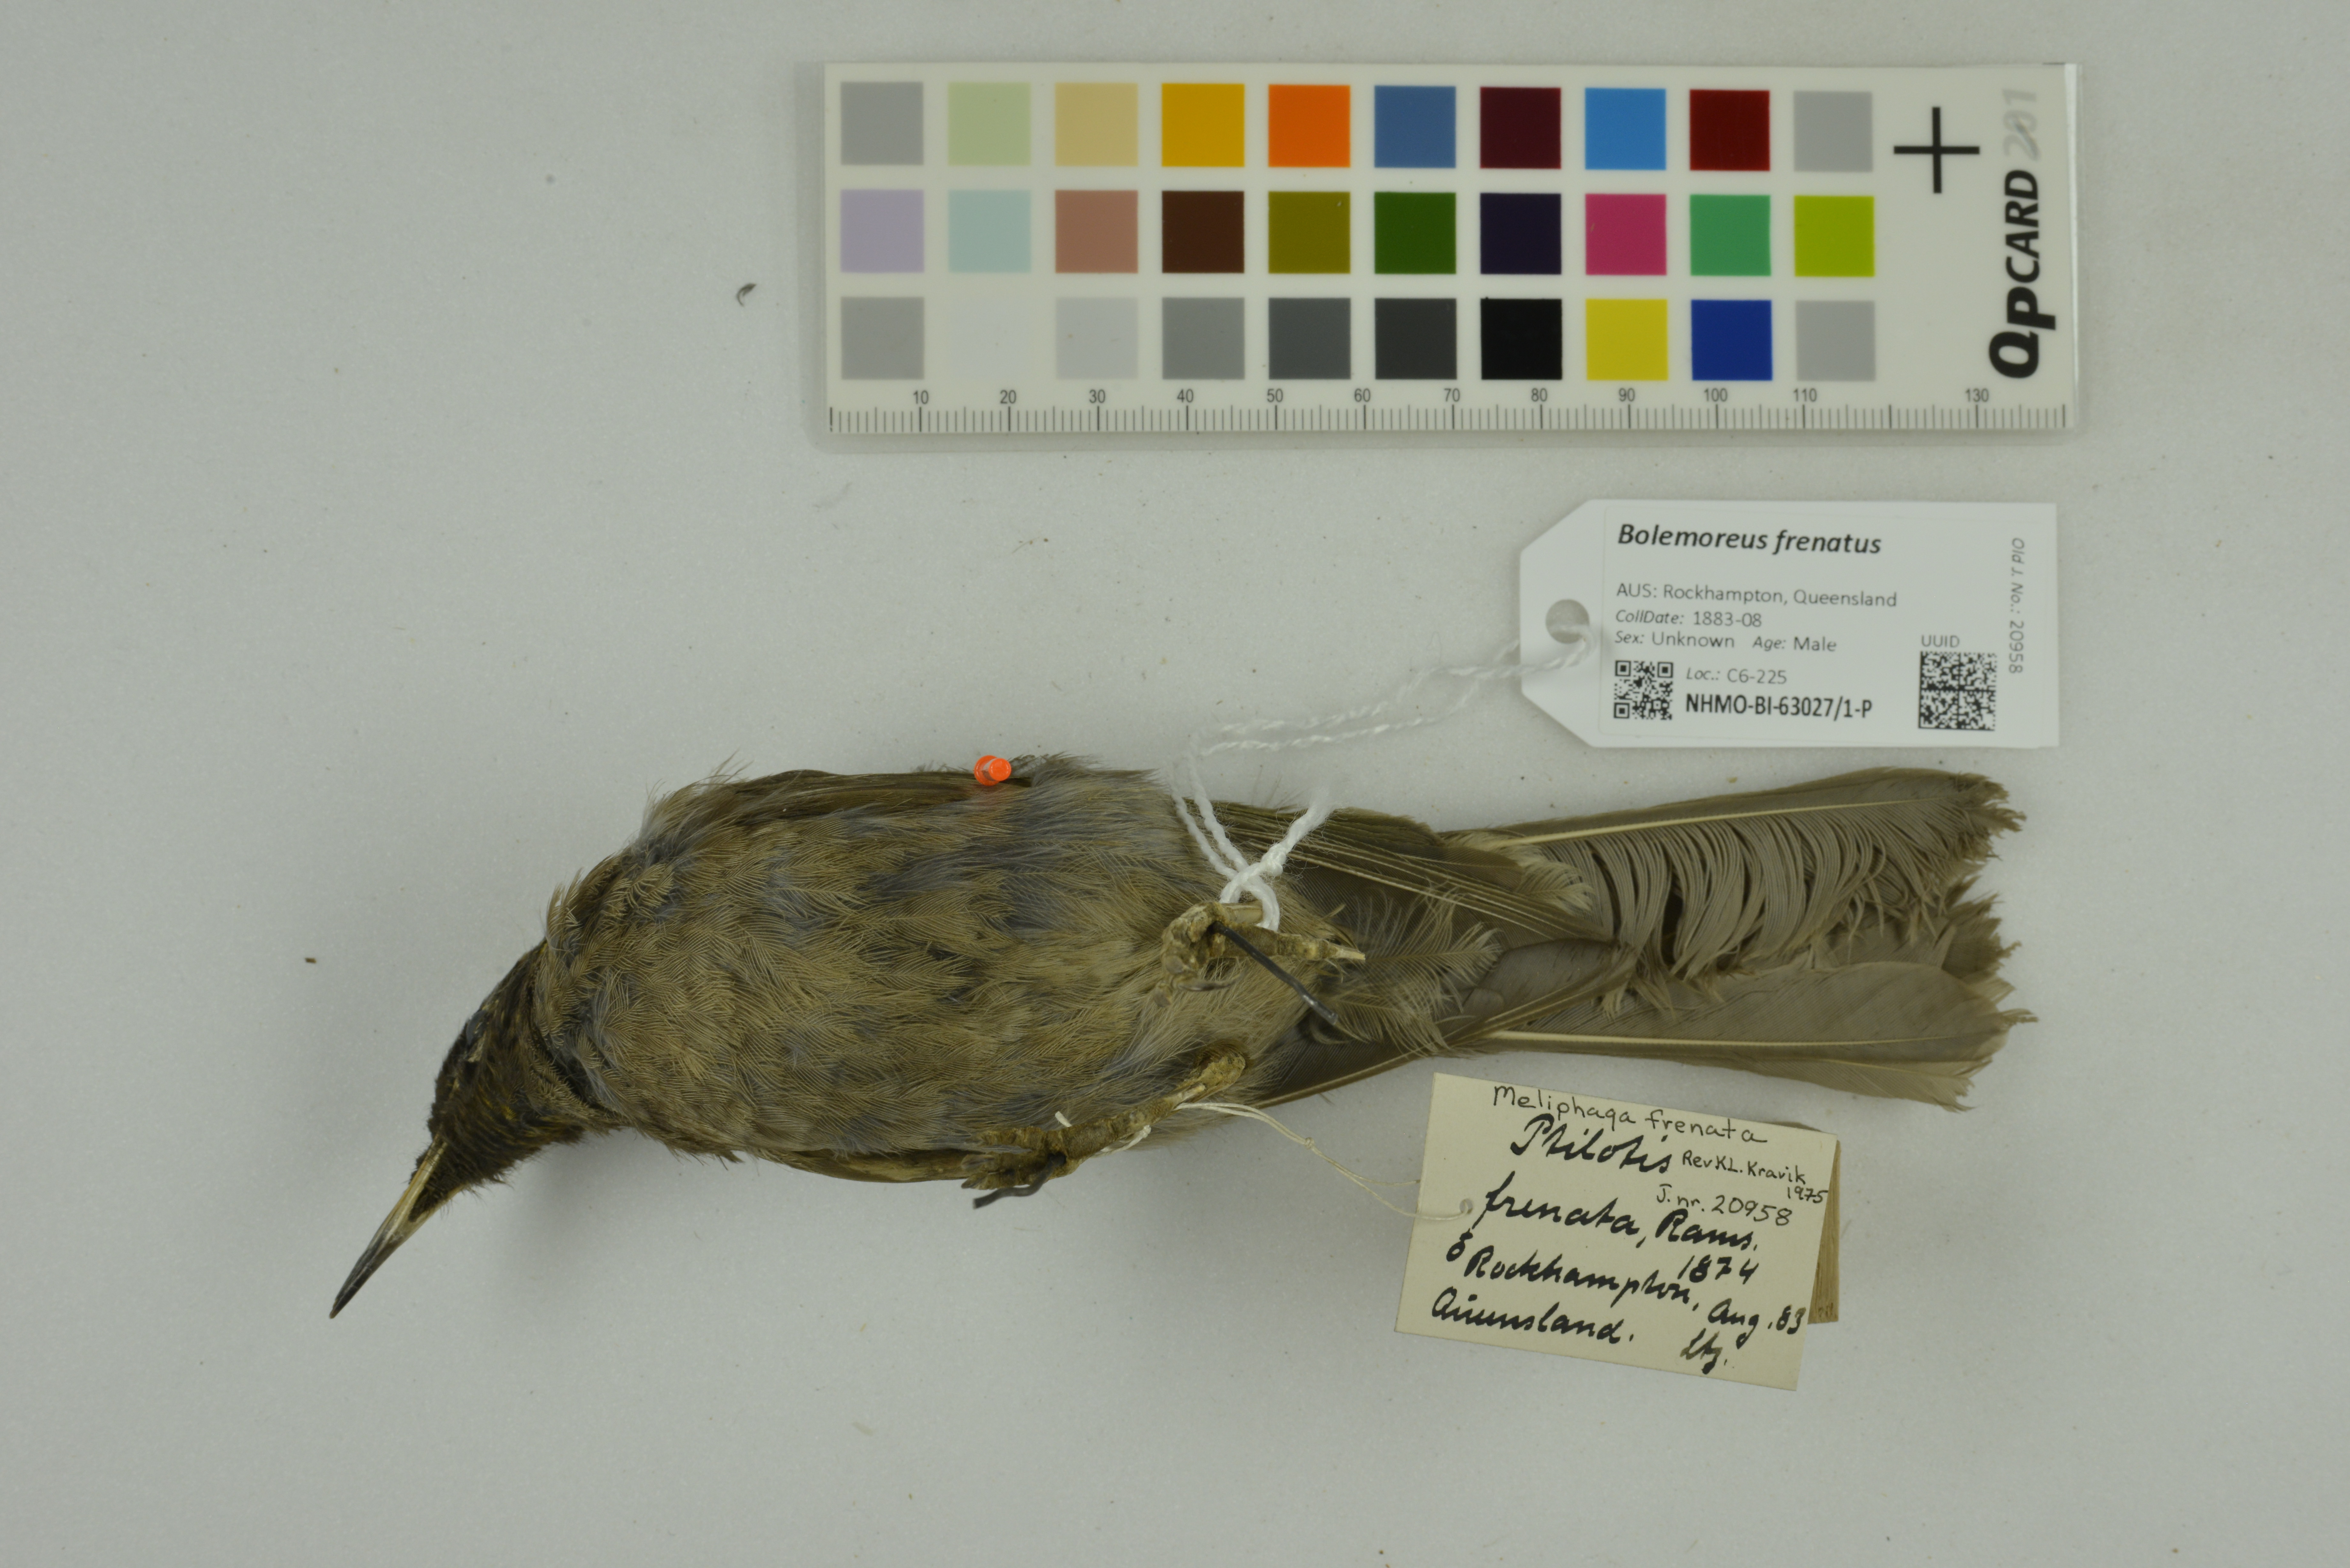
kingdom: Animalia
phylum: Chordata
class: Aves
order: Passeriformes
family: Meliphagidae
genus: Bolemoreus
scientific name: Bolemoreus frenatus
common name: Bridled honeyeater
